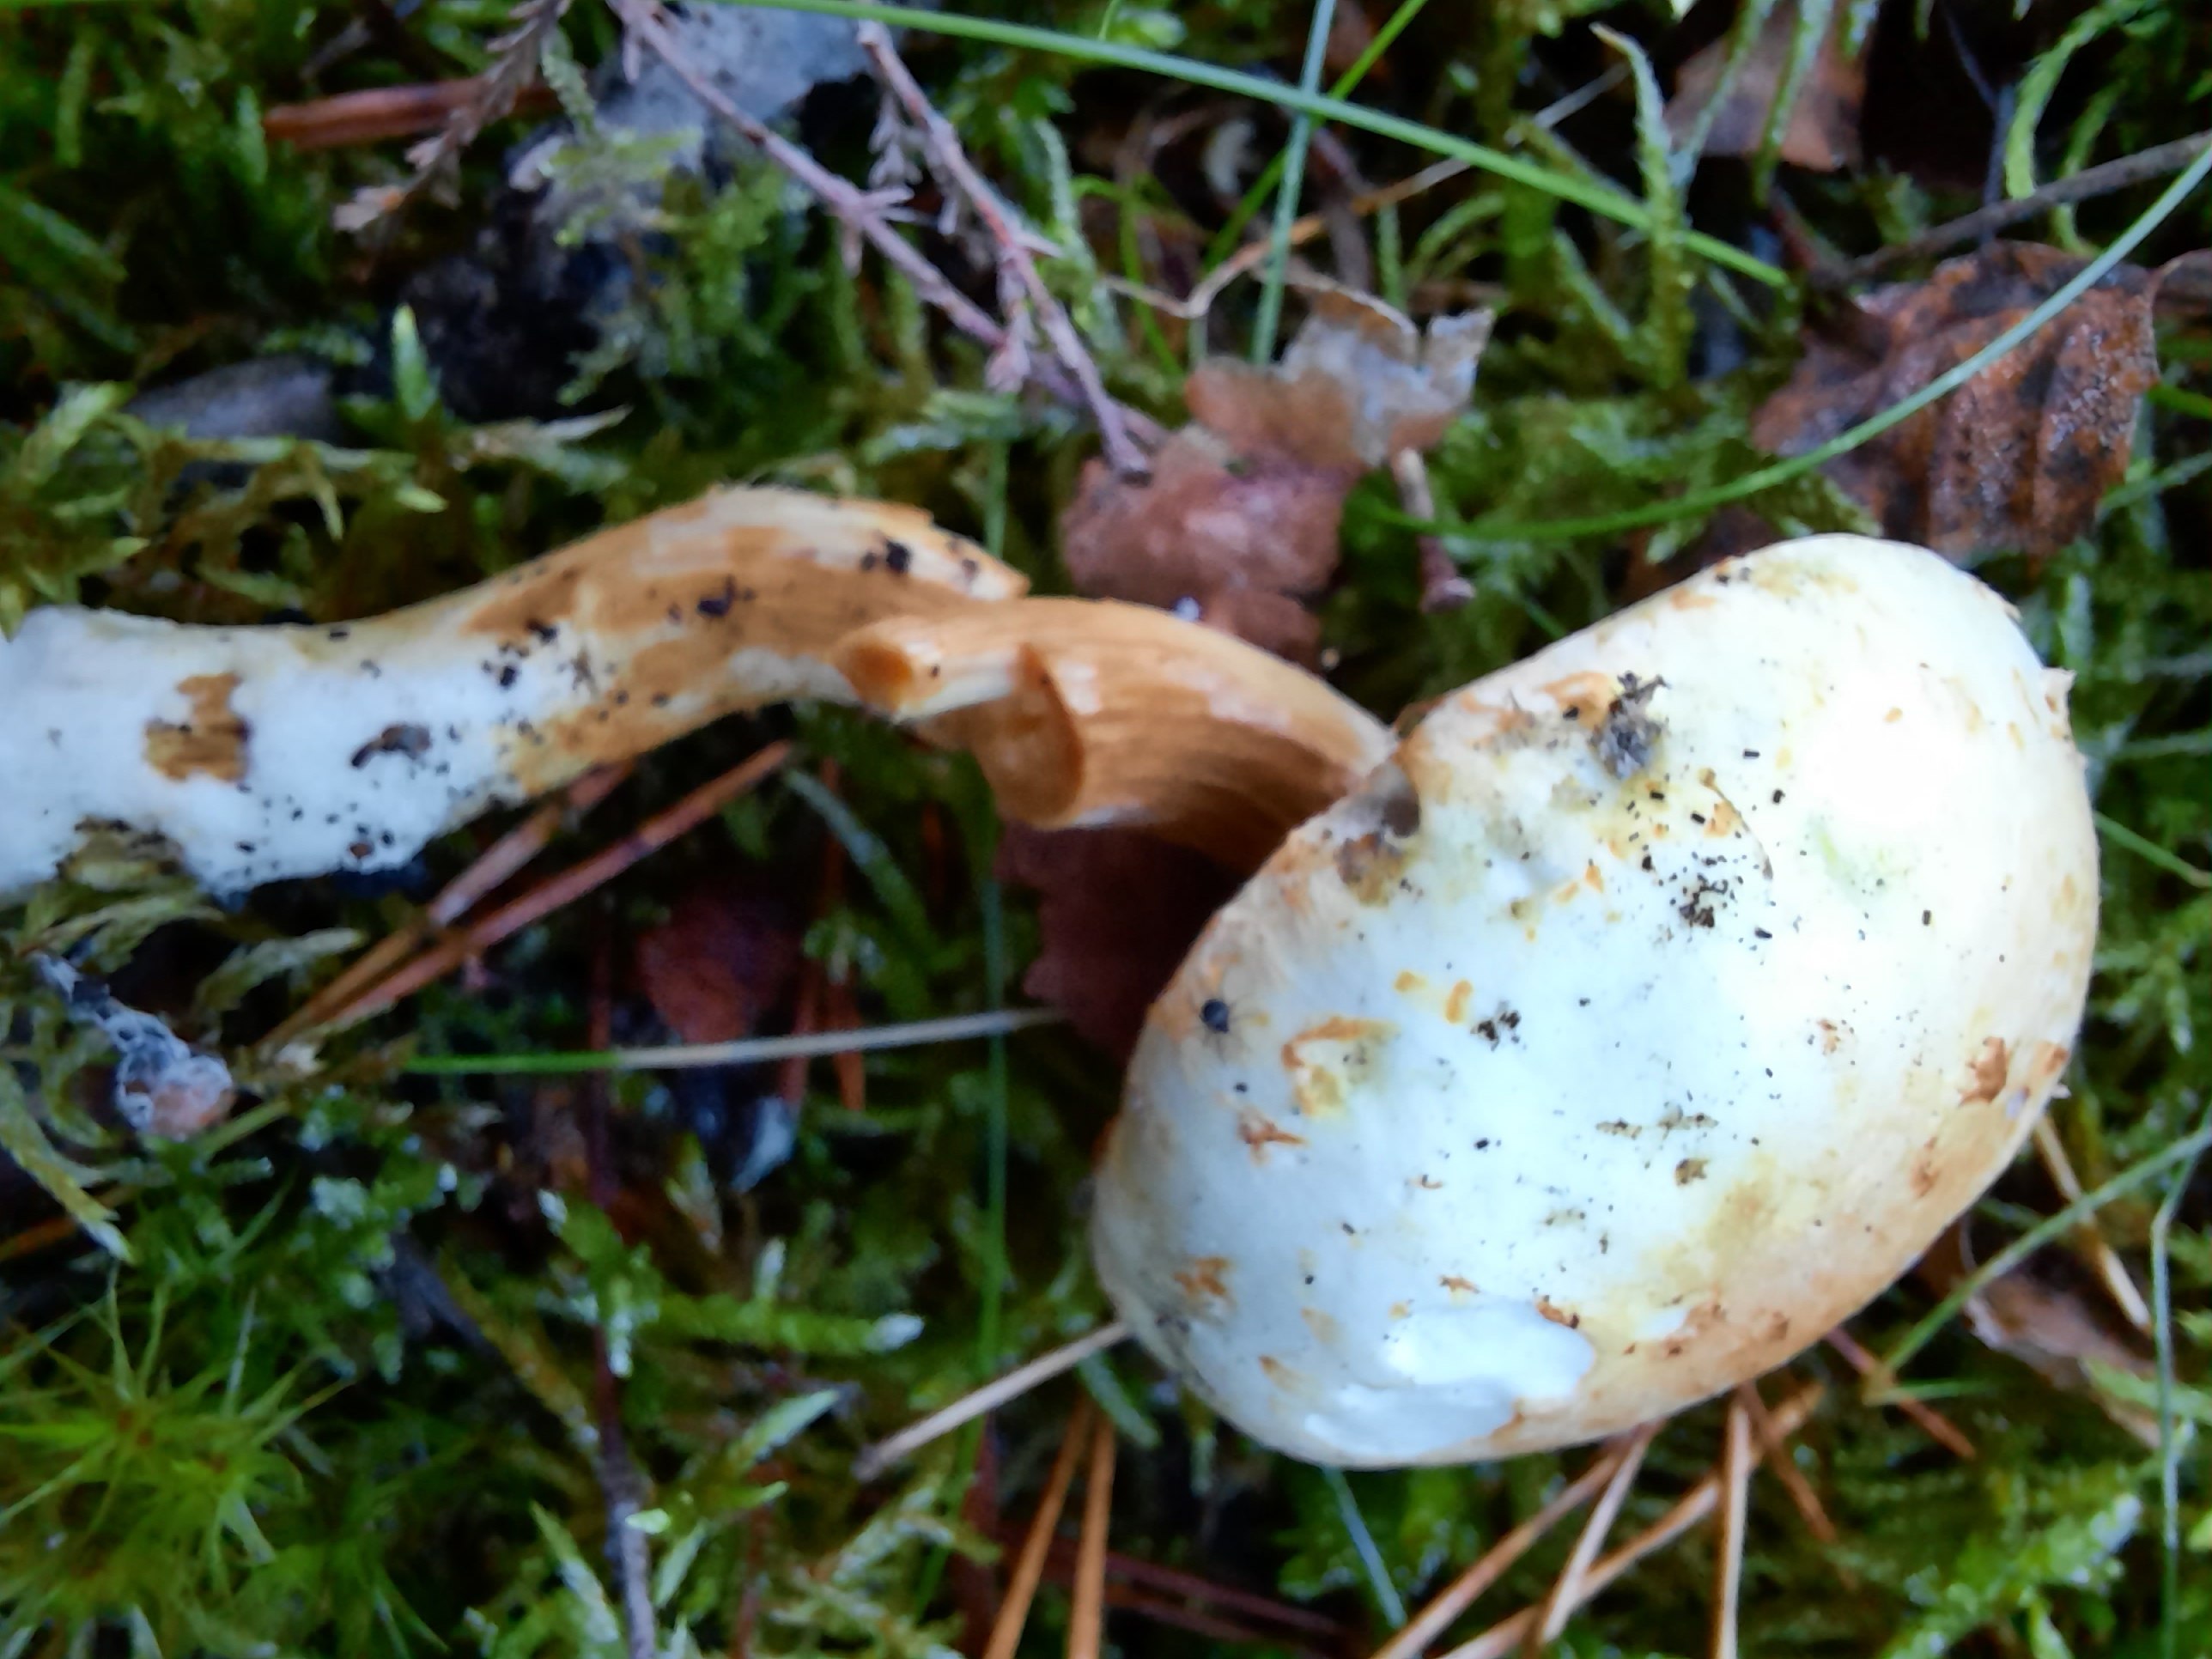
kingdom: Fungi
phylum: Basidiomycota
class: Agaricomycetes
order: Agaricales
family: Strophariaceae
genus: Pholiota
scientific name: Pholiota heteroclita
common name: duftende kæmpeskælhat
